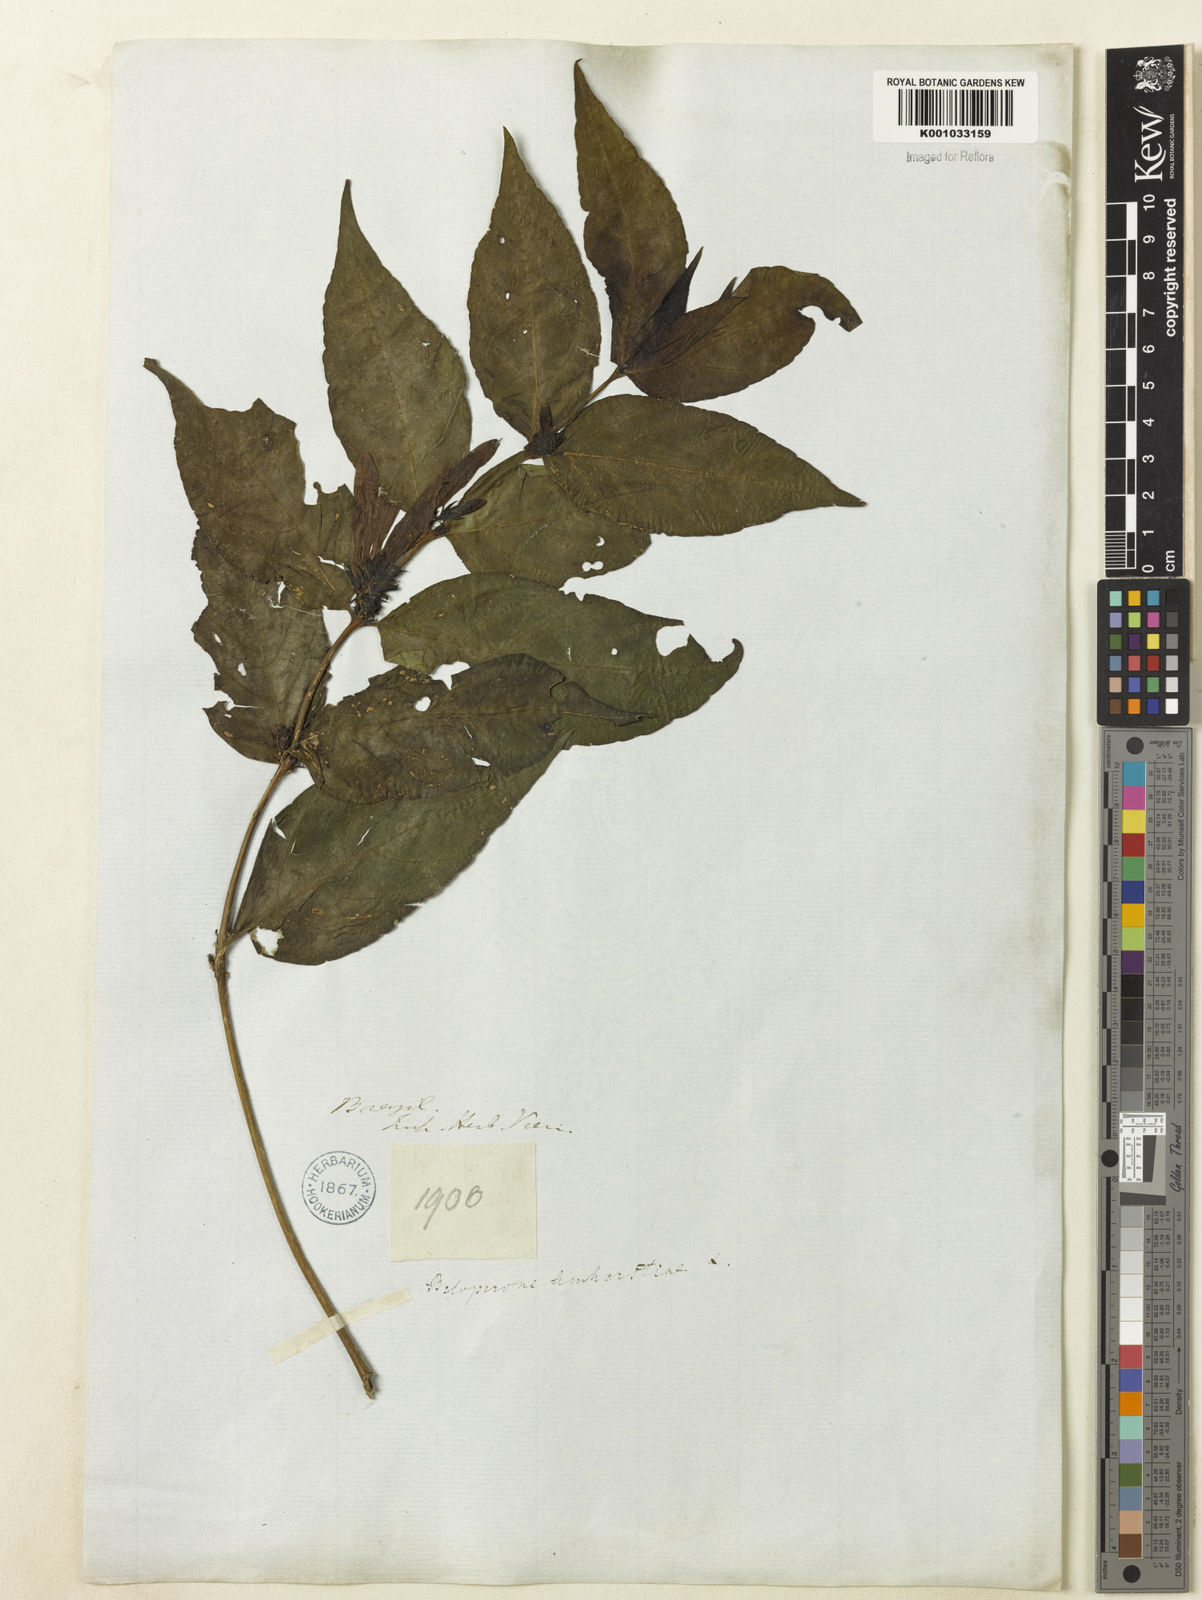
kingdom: Plantae
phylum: Tracheophyta
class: Magnoliopsida
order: Lamiales
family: Acanthaceae
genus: Justicia
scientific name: Justicia brasiliana
